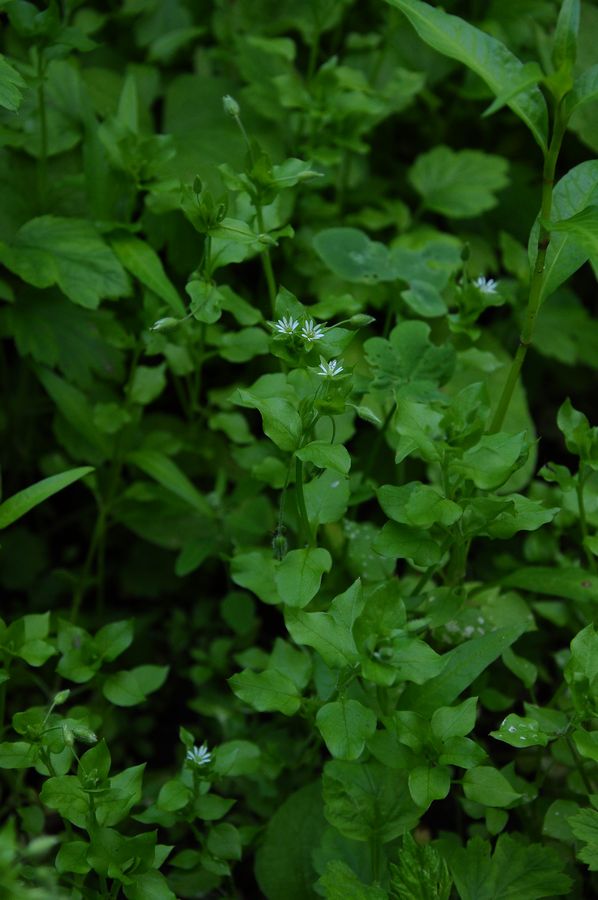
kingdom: Plantae
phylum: Tracheophyta
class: Magnoliopsida
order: Caryophyllales
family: Caryophyllaceae
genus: Stellaria
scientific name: Stellaria media
